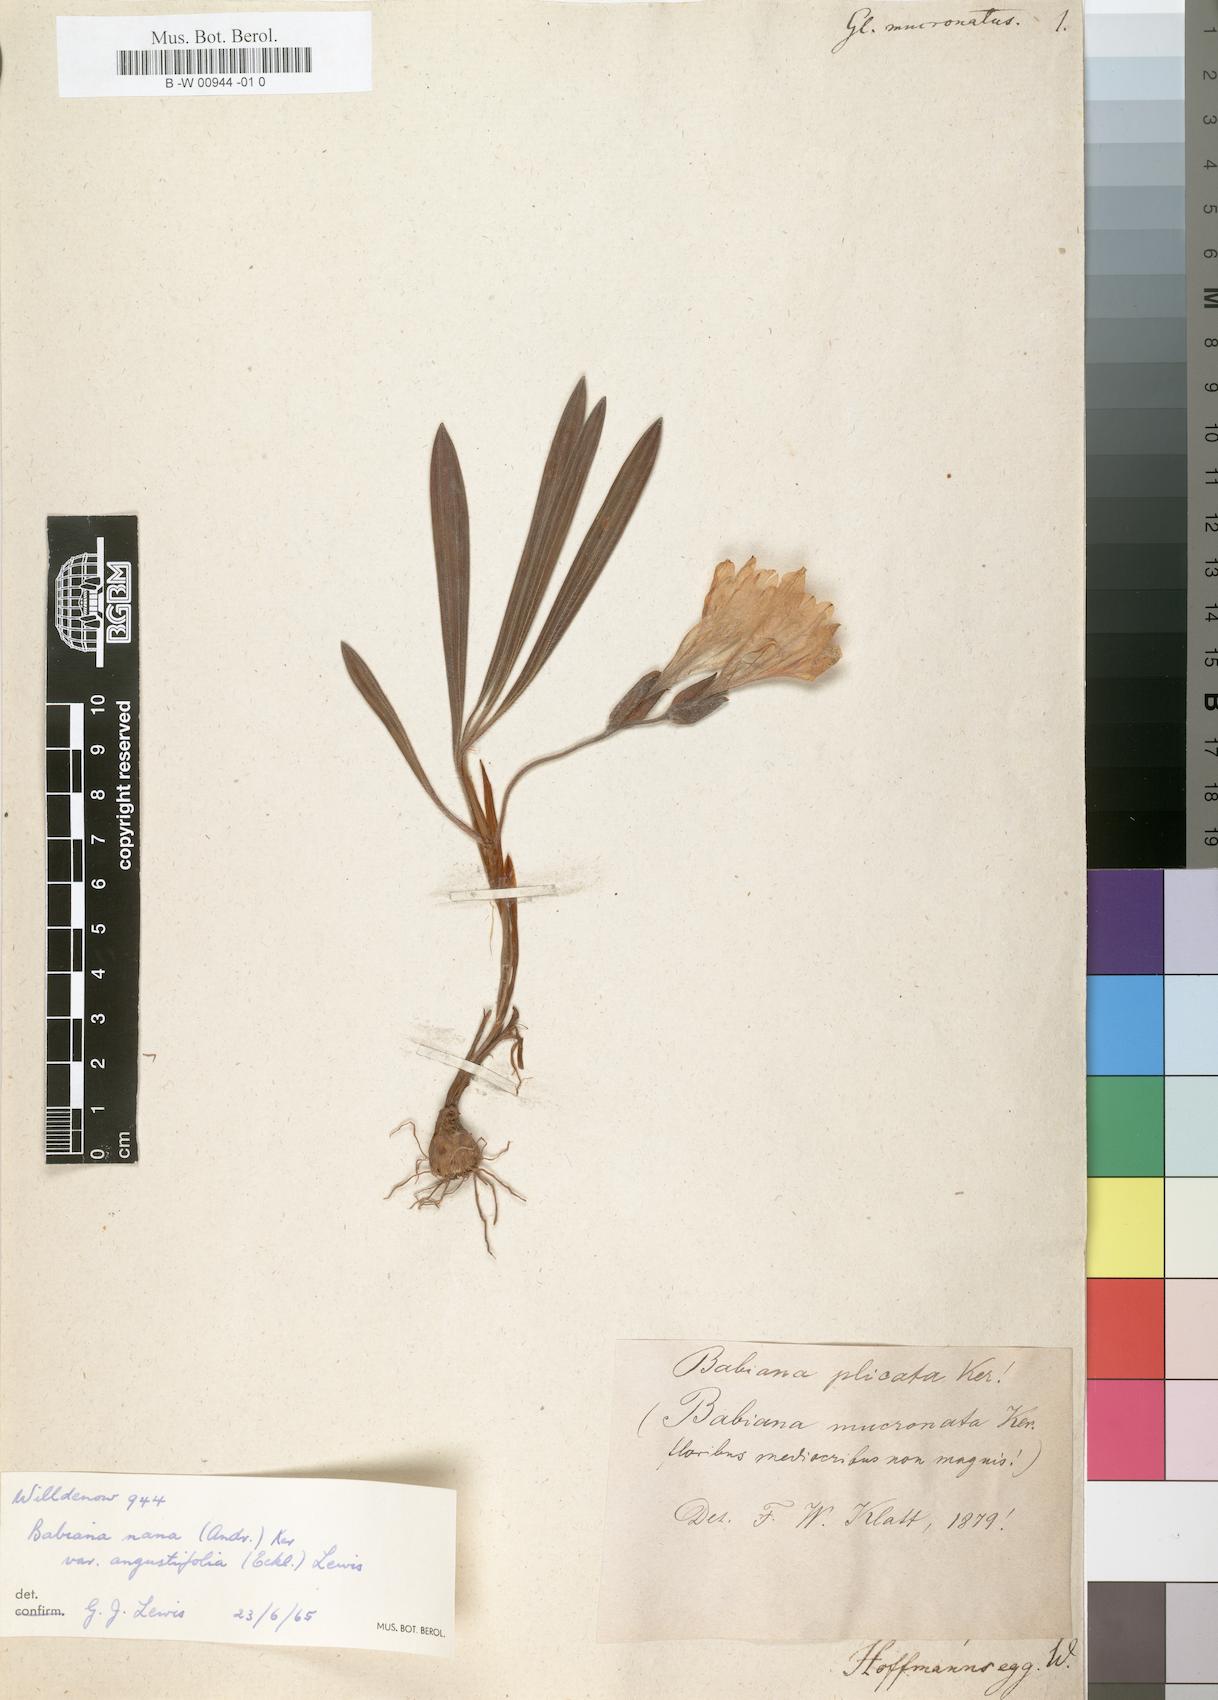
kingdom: Plantae
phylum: Tracheophyta
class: Liliopsida
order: Asparagales
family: Iridaceae
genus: Gladiolus
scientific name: Gladiolus mucronatus
